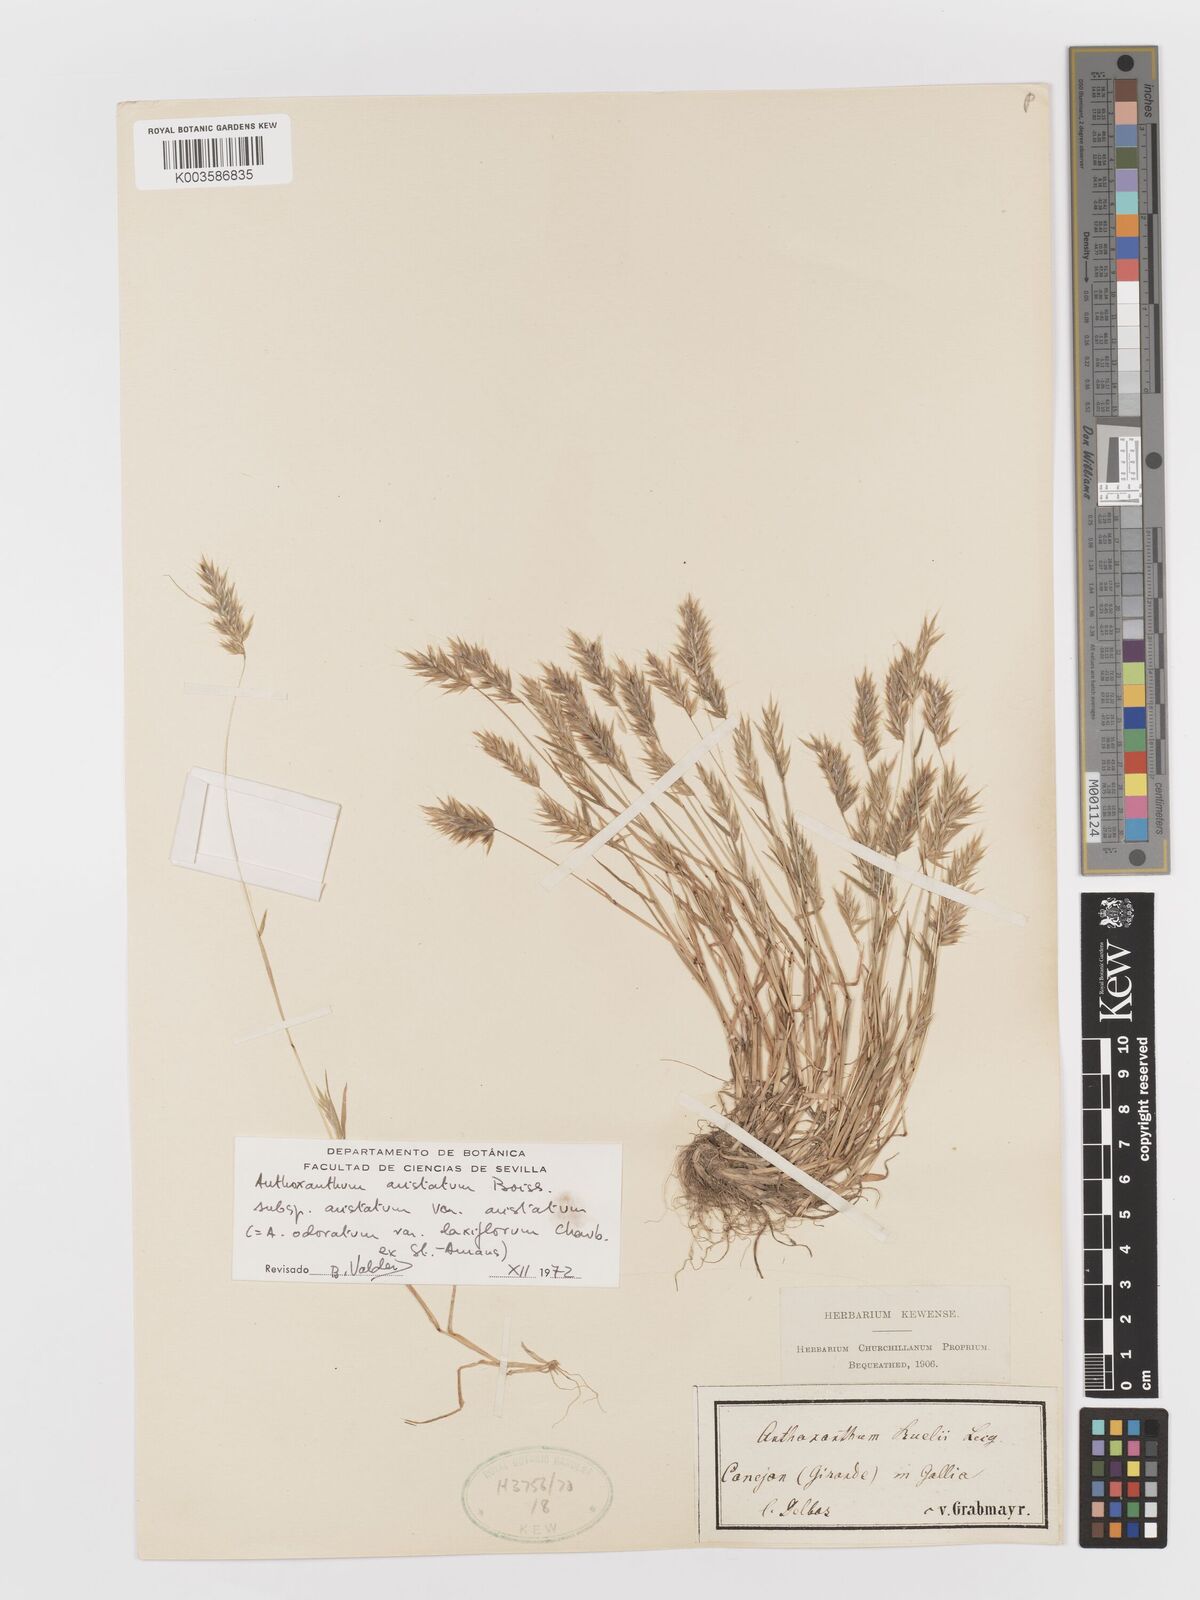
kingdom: Plantae
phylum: Tracheophyta
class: Liliopsida
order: Poales
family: Poaceae
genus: Anthoxanthum
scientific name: Anthoxanthum
